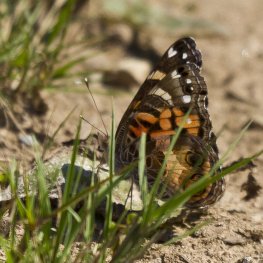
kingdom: Animalia
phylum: Arthropoda
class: Insecta
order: Lepidoptera
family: Nymphalidae
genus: Vanessa
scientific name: Vanessa virginiensis
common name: American Lady
